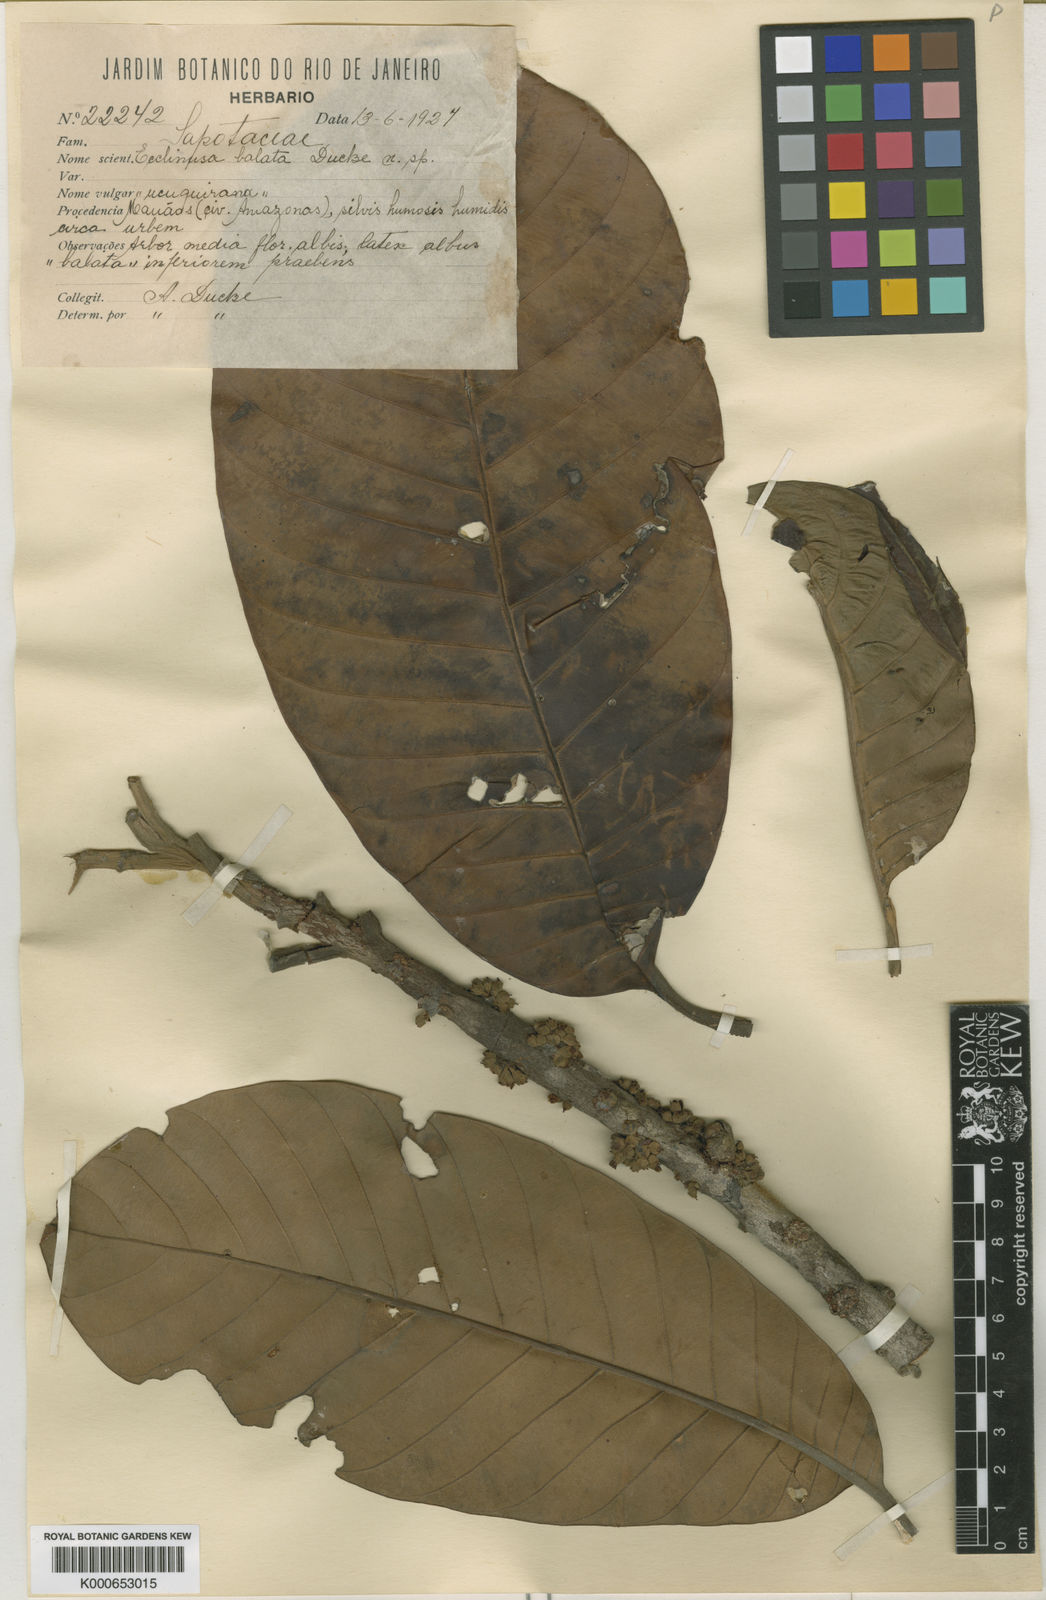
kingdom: Plantae
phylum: Tracheophyta
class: Magnoliopsida
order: Ericales
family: Sapotaceae
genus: Chrysophyllum
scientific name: Chrysophyllum sanguinolentum
